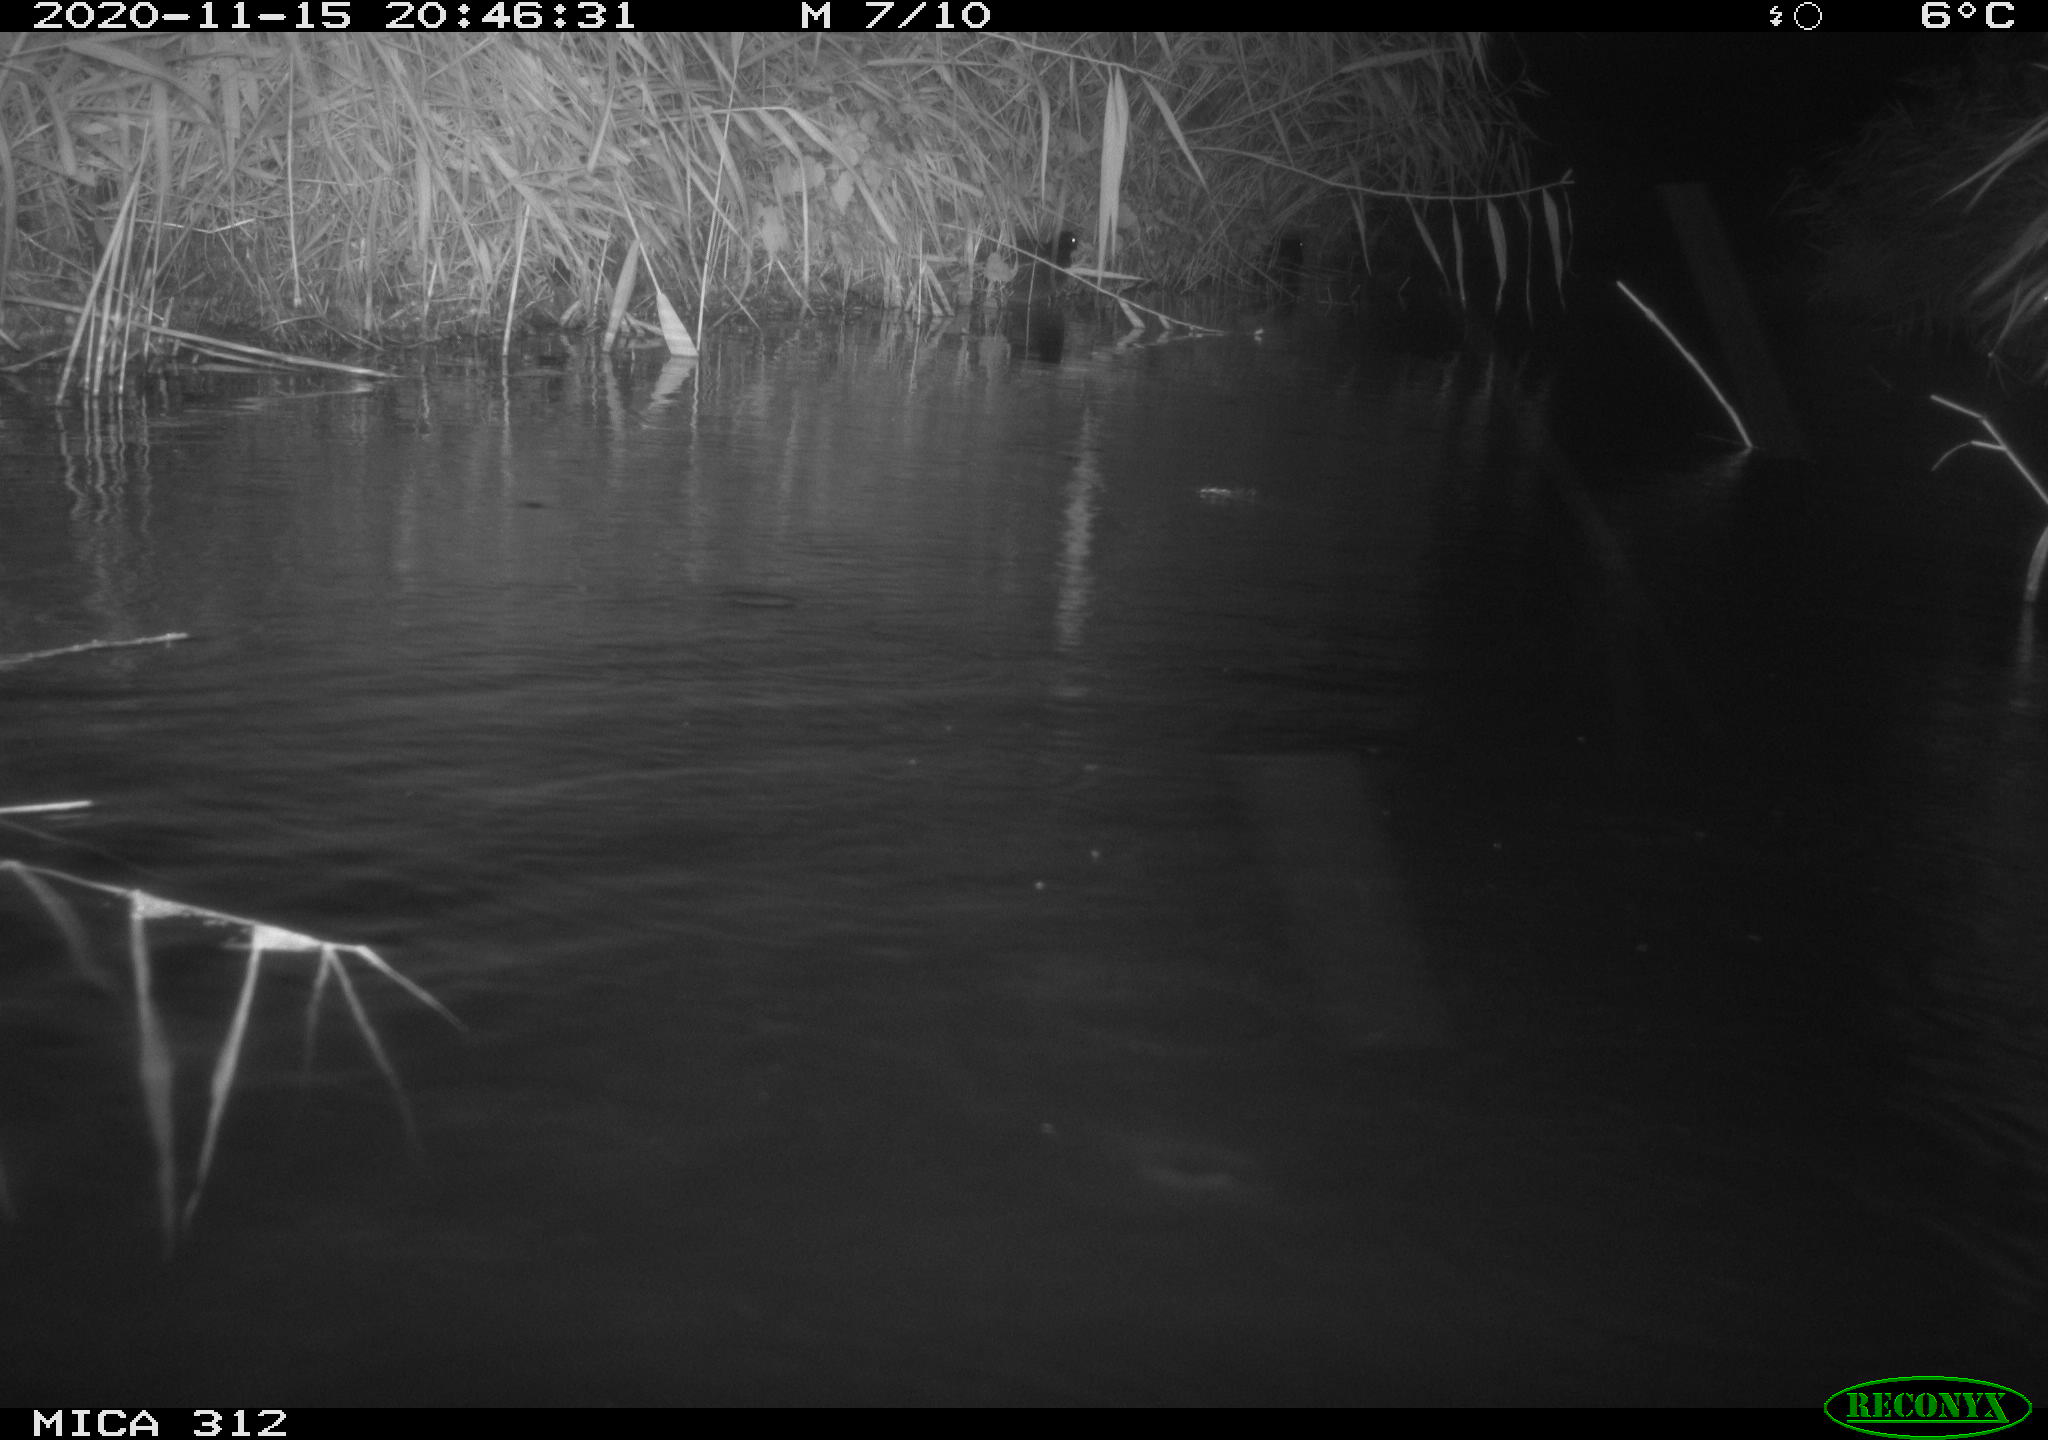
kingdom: Animalia
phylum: Chordata
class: Mammalia
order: Rodentia
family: Muridae
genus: Rattus
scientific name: Rattus norvegicus
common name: Brown rat
